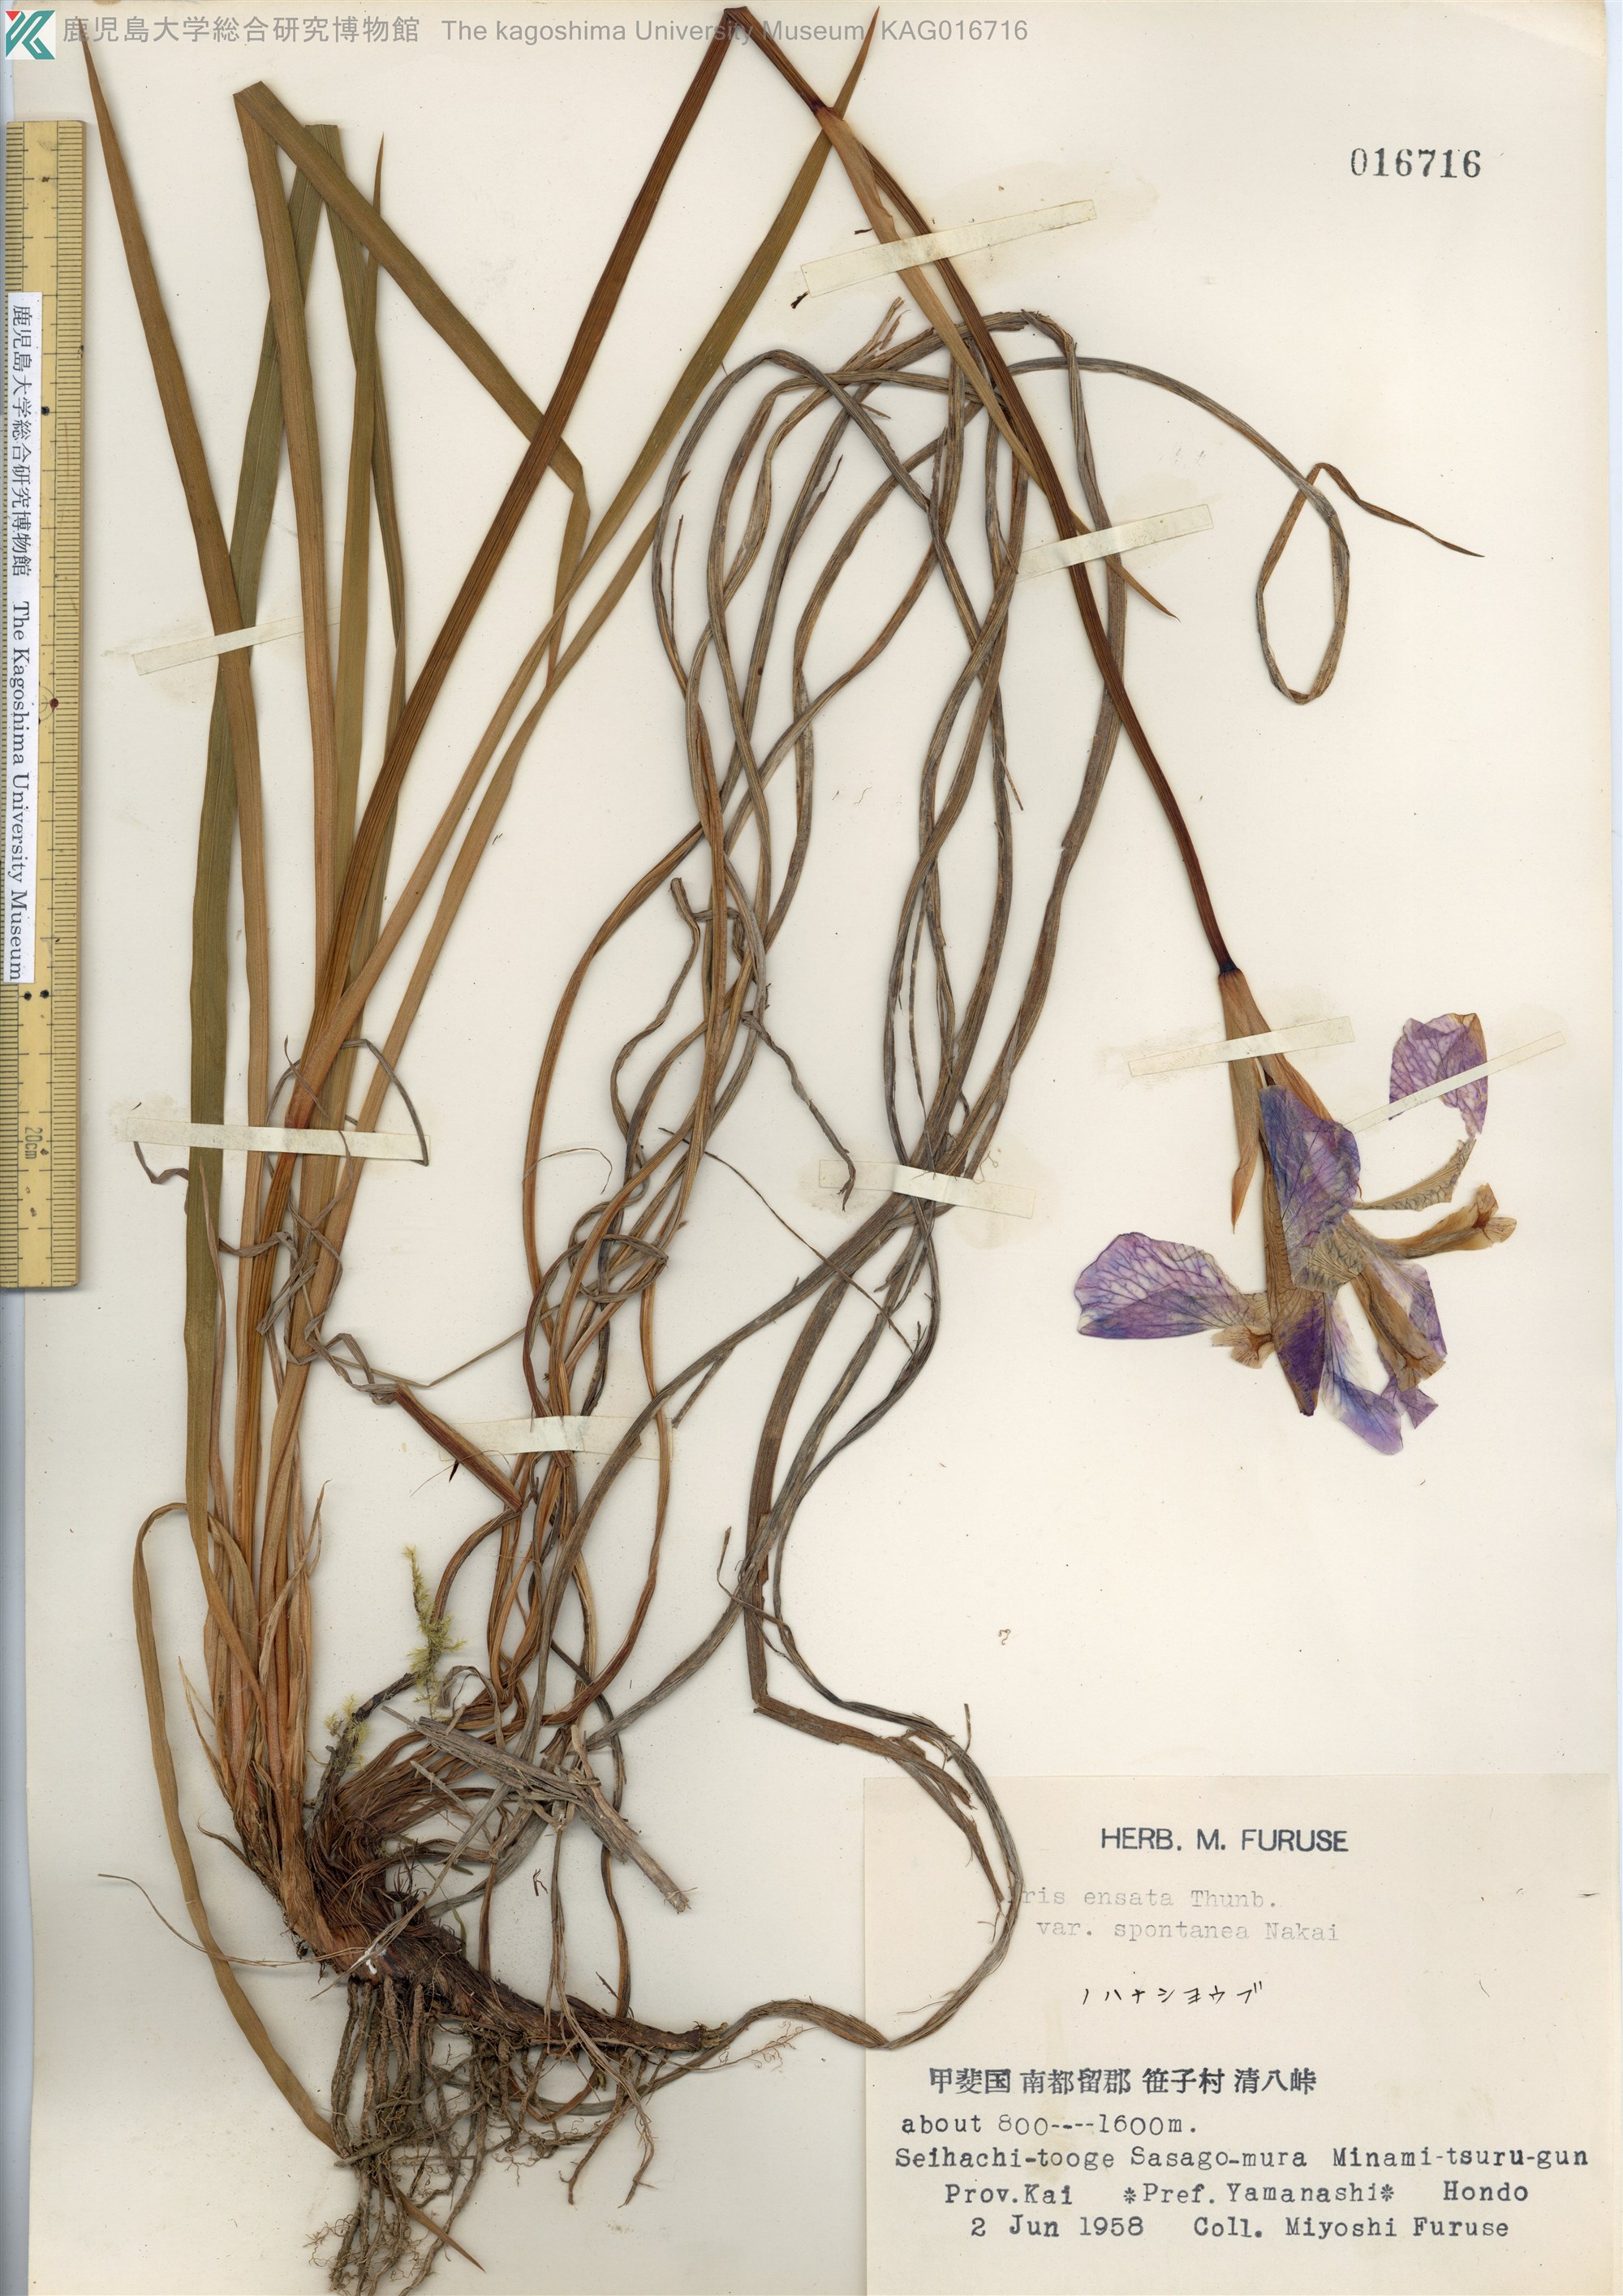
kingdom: Plantae
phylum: Tracheophyta
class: Liliopsida
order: Asparagales
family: Iridaceae
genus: Iris
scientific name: Iris ensata
